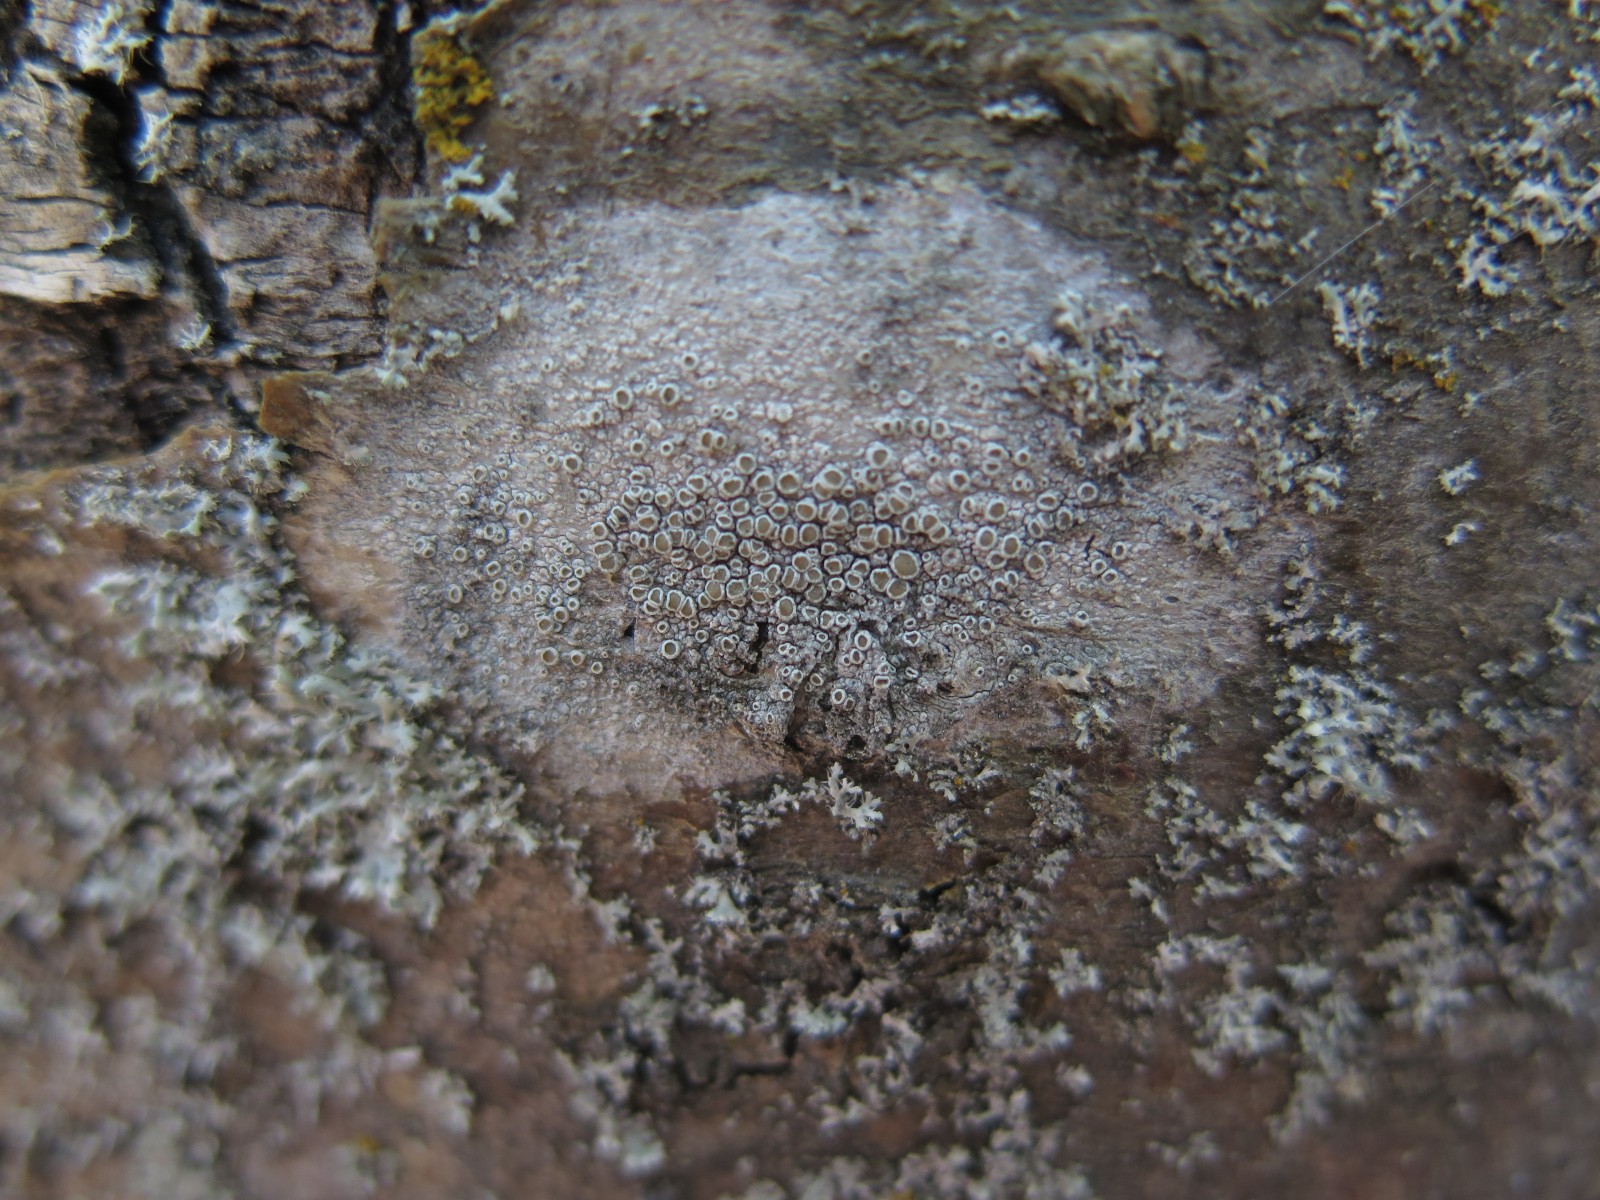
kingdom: Fungi
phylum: Ascomycota
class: Lecanoromycetes
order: Lecanorales
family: Lecanoraceae
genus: Lecanora
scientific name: Lecanora chlarotera
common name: brun kantskivelav
